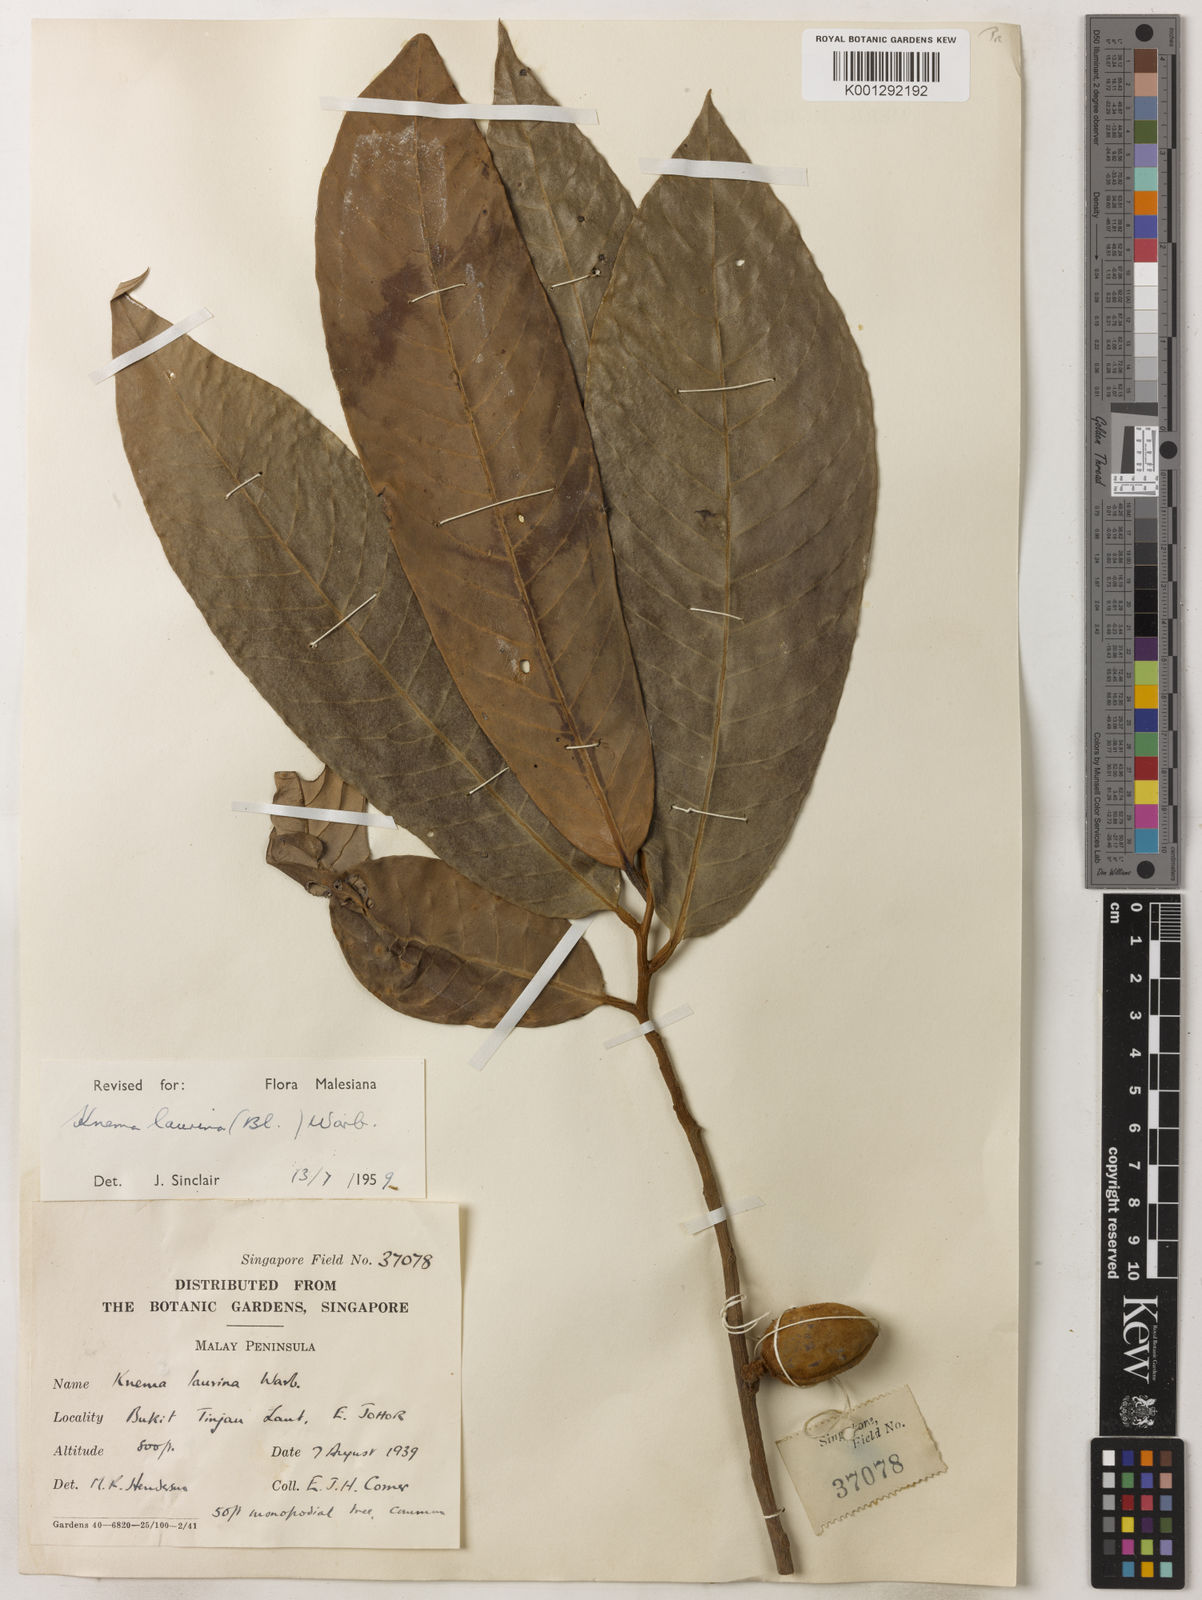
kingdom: Plantae
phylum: Tracheophyta
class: Magnoliopsida
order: Magnoliales
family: Myristicaceae
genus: Knema
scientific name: Knema laurina
